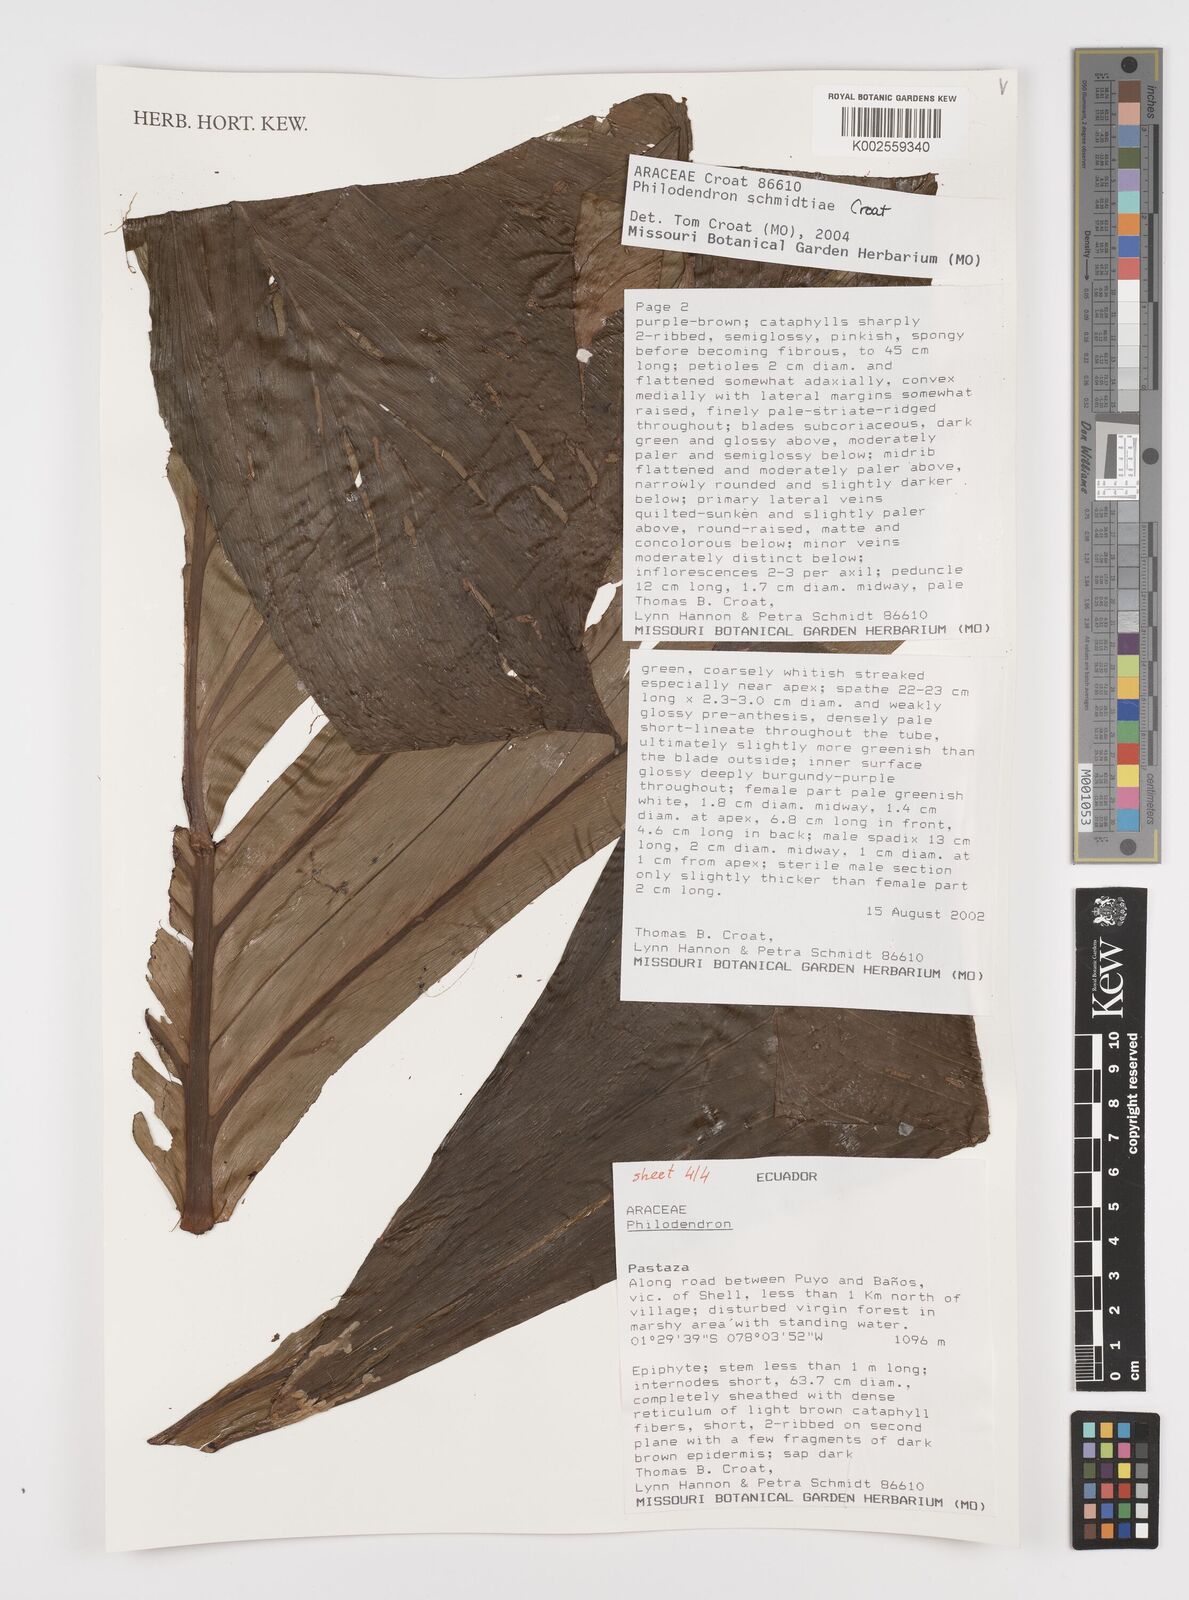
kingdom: Plantae
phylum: Tracheophyta
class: Liliopsida
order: Alismatales
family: Araceae
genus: Philodendron
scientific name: Philodendron schmidtiae
